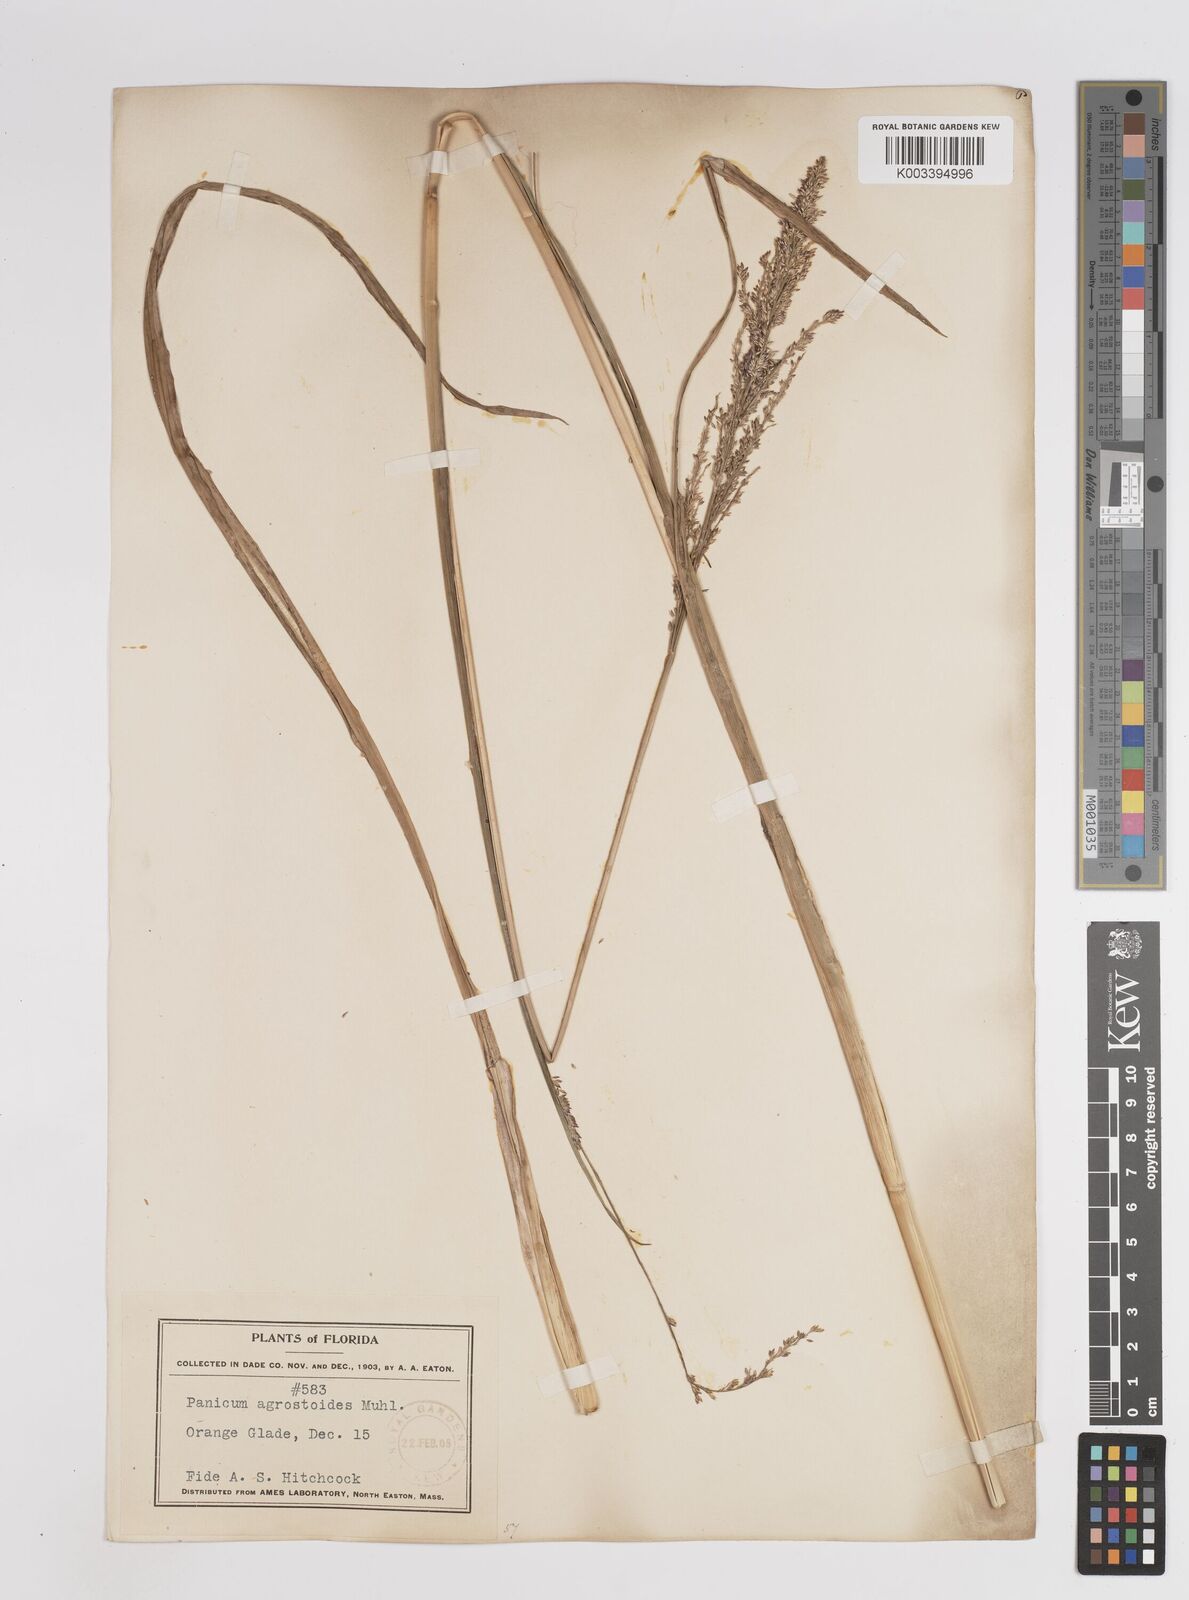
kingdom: Plantae
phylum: Tracheophyta
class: Liliopsida
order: Poales
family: Poaceae
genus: Coleataenia
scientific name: Coleataenia rigidula
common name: Redtop panicgrass
